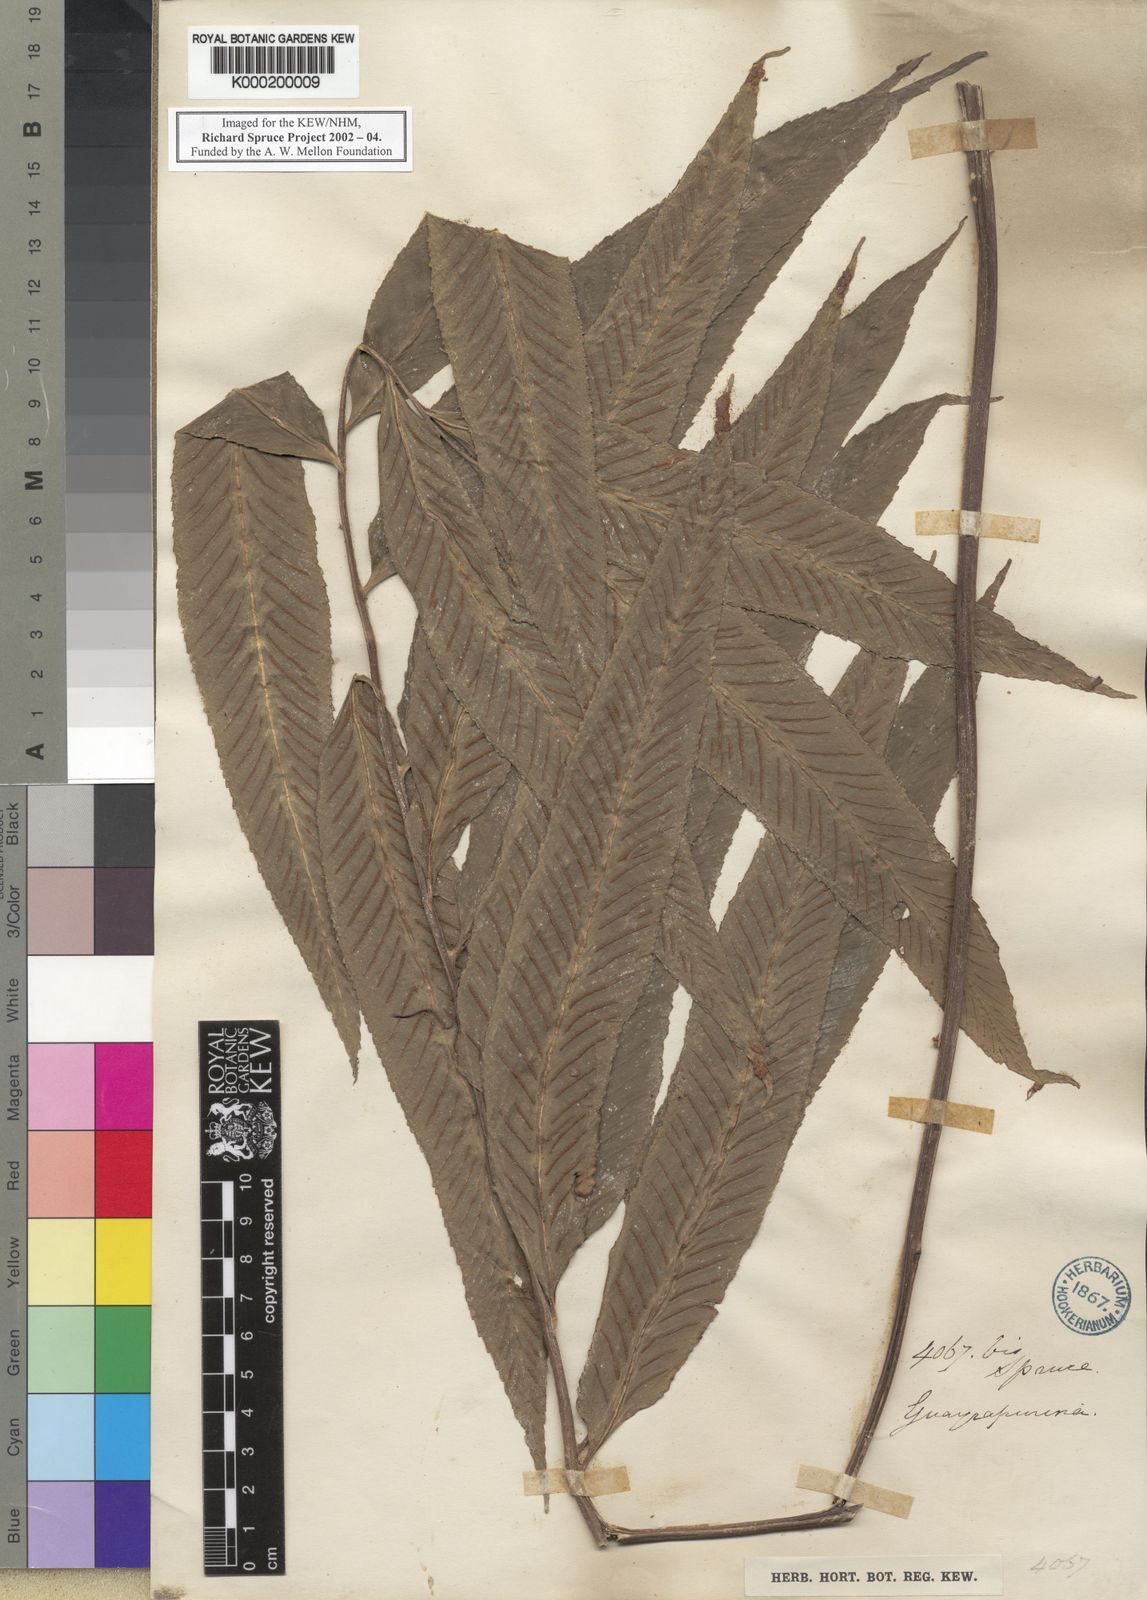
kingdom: Plantae
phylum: Tracheophyta
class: Polypodiopsida
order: Polypodiales
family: Aspleniaceae
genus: Asplenium
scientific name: Asplenium
